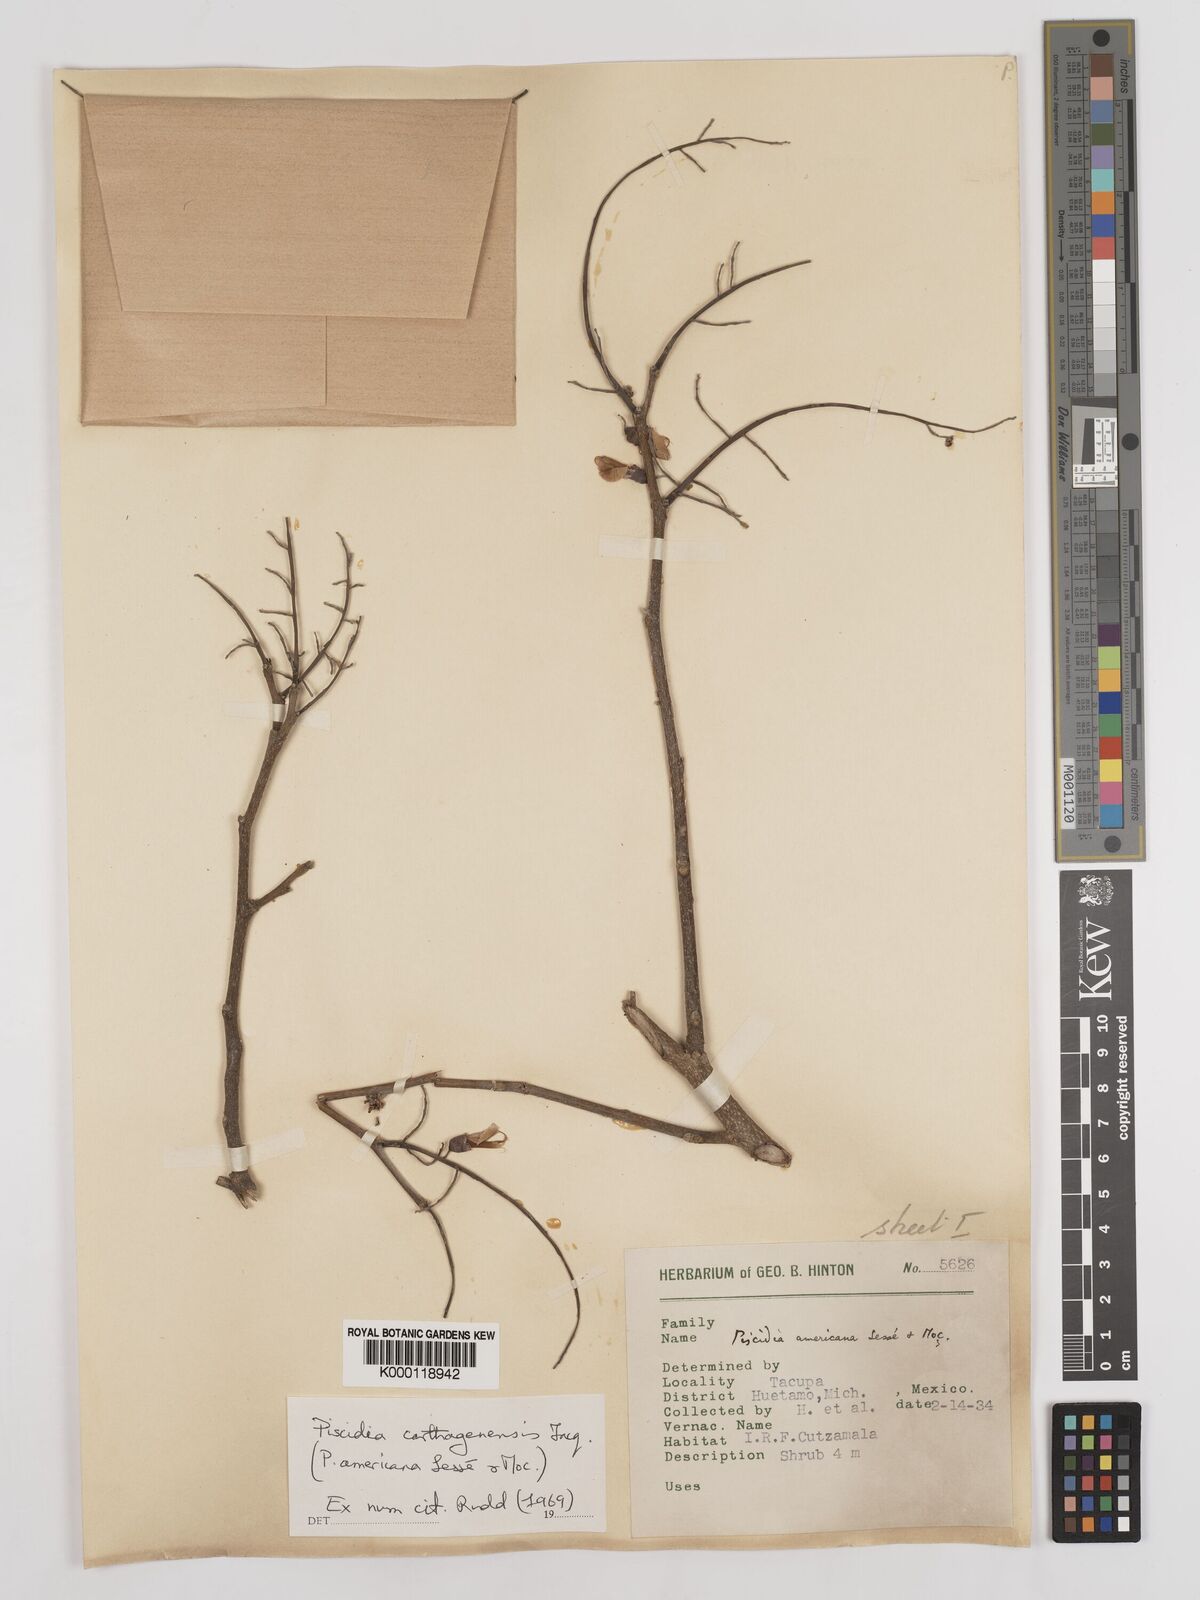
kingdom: Plantae
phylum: Tracheophyta
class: Magnoliopsida
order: Fabales
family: Fabaceae
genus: Piscidia
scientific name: Piscidia carthagenensis
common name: Stinkwood
